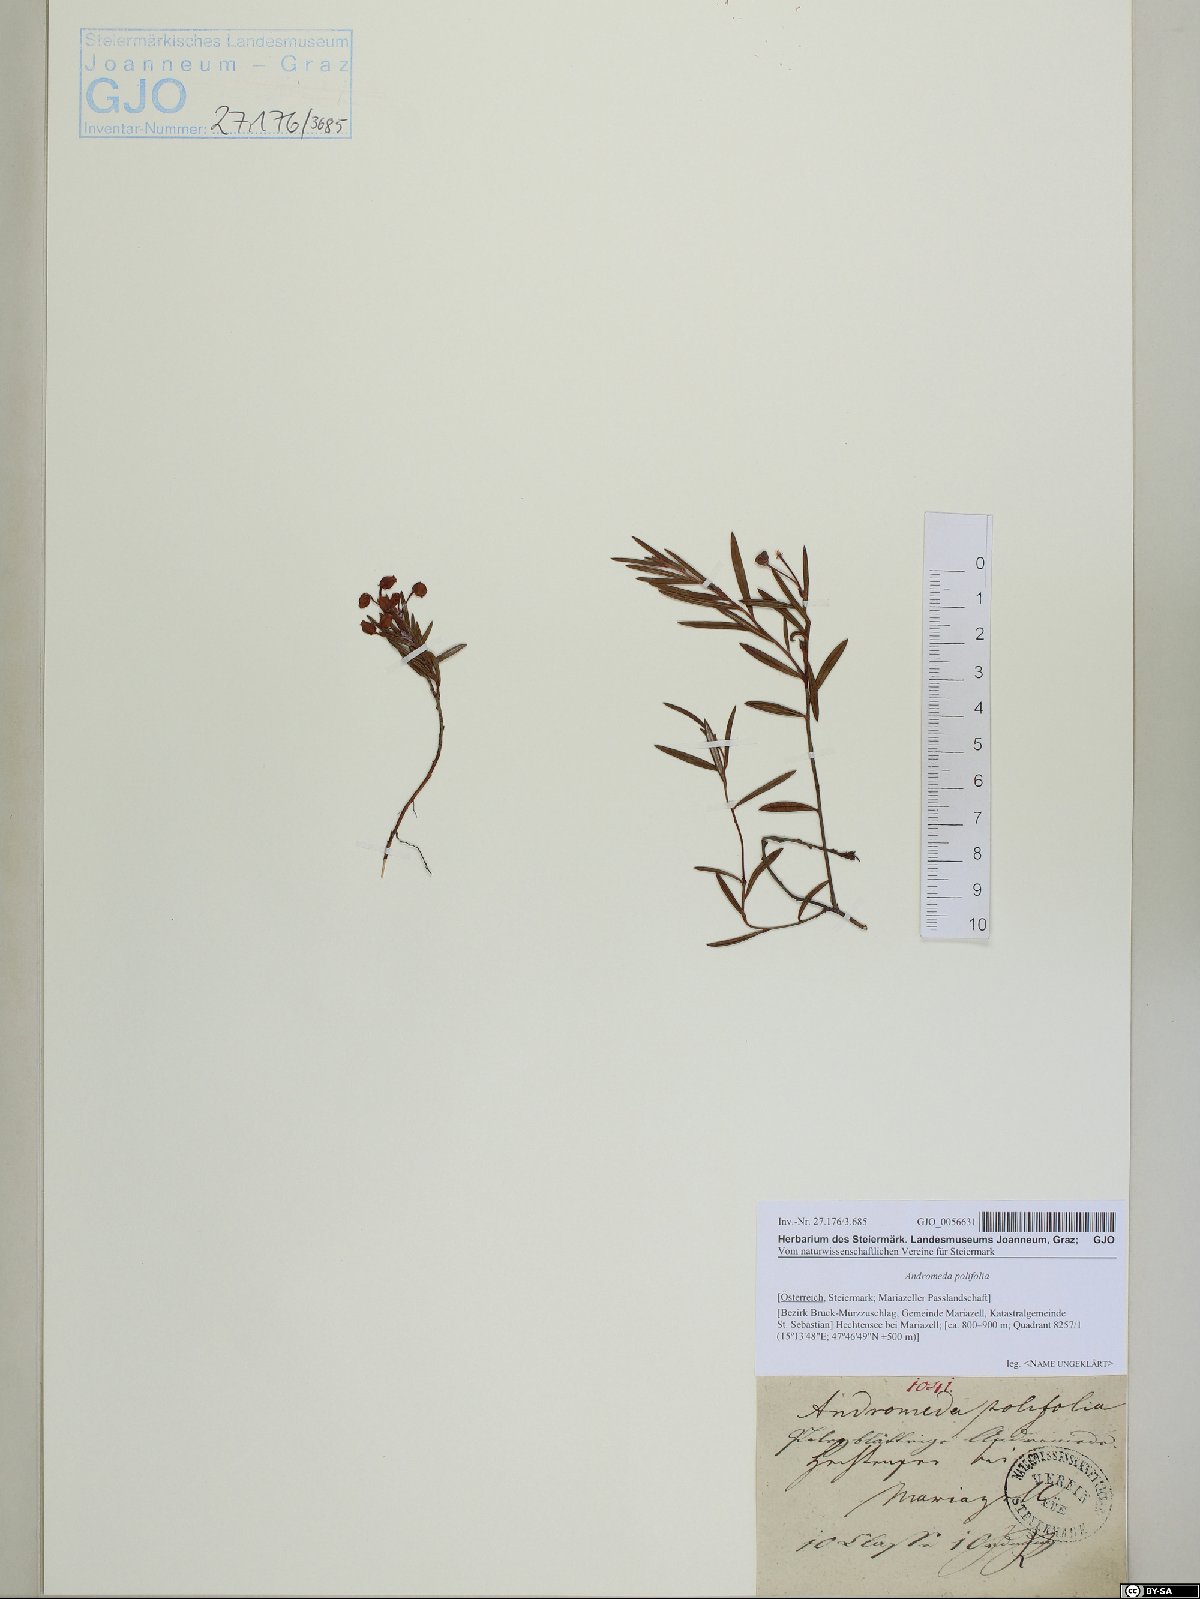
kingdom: Plantae
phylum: Tracheophyta
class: Magnoliopsida
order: Ericales
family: Ericaceae
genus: Andromeda
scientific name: Andromeda polifolia
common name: Bog-rosemary
